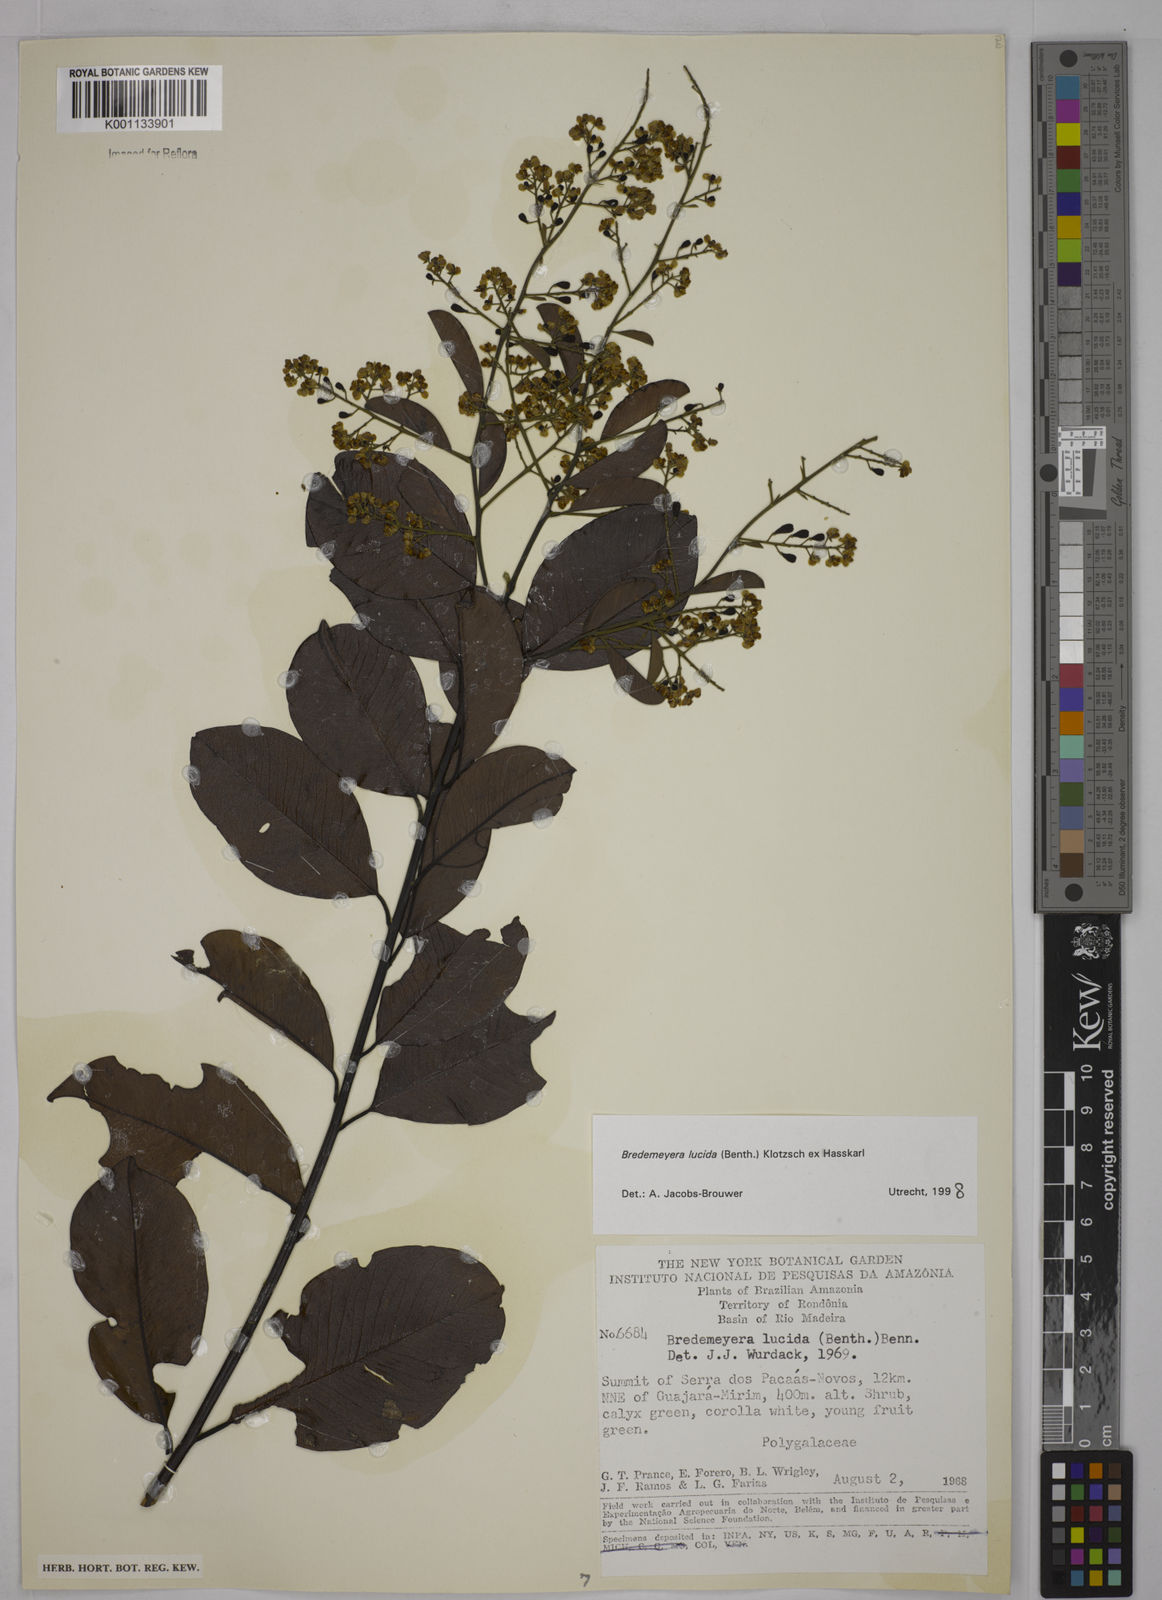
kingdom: Plantae
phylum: Tracheophyta
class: Magnoliopsida
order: Fabales
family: Polygalaceae
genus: Bredemeyera
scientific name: Bredemeyera lucida
